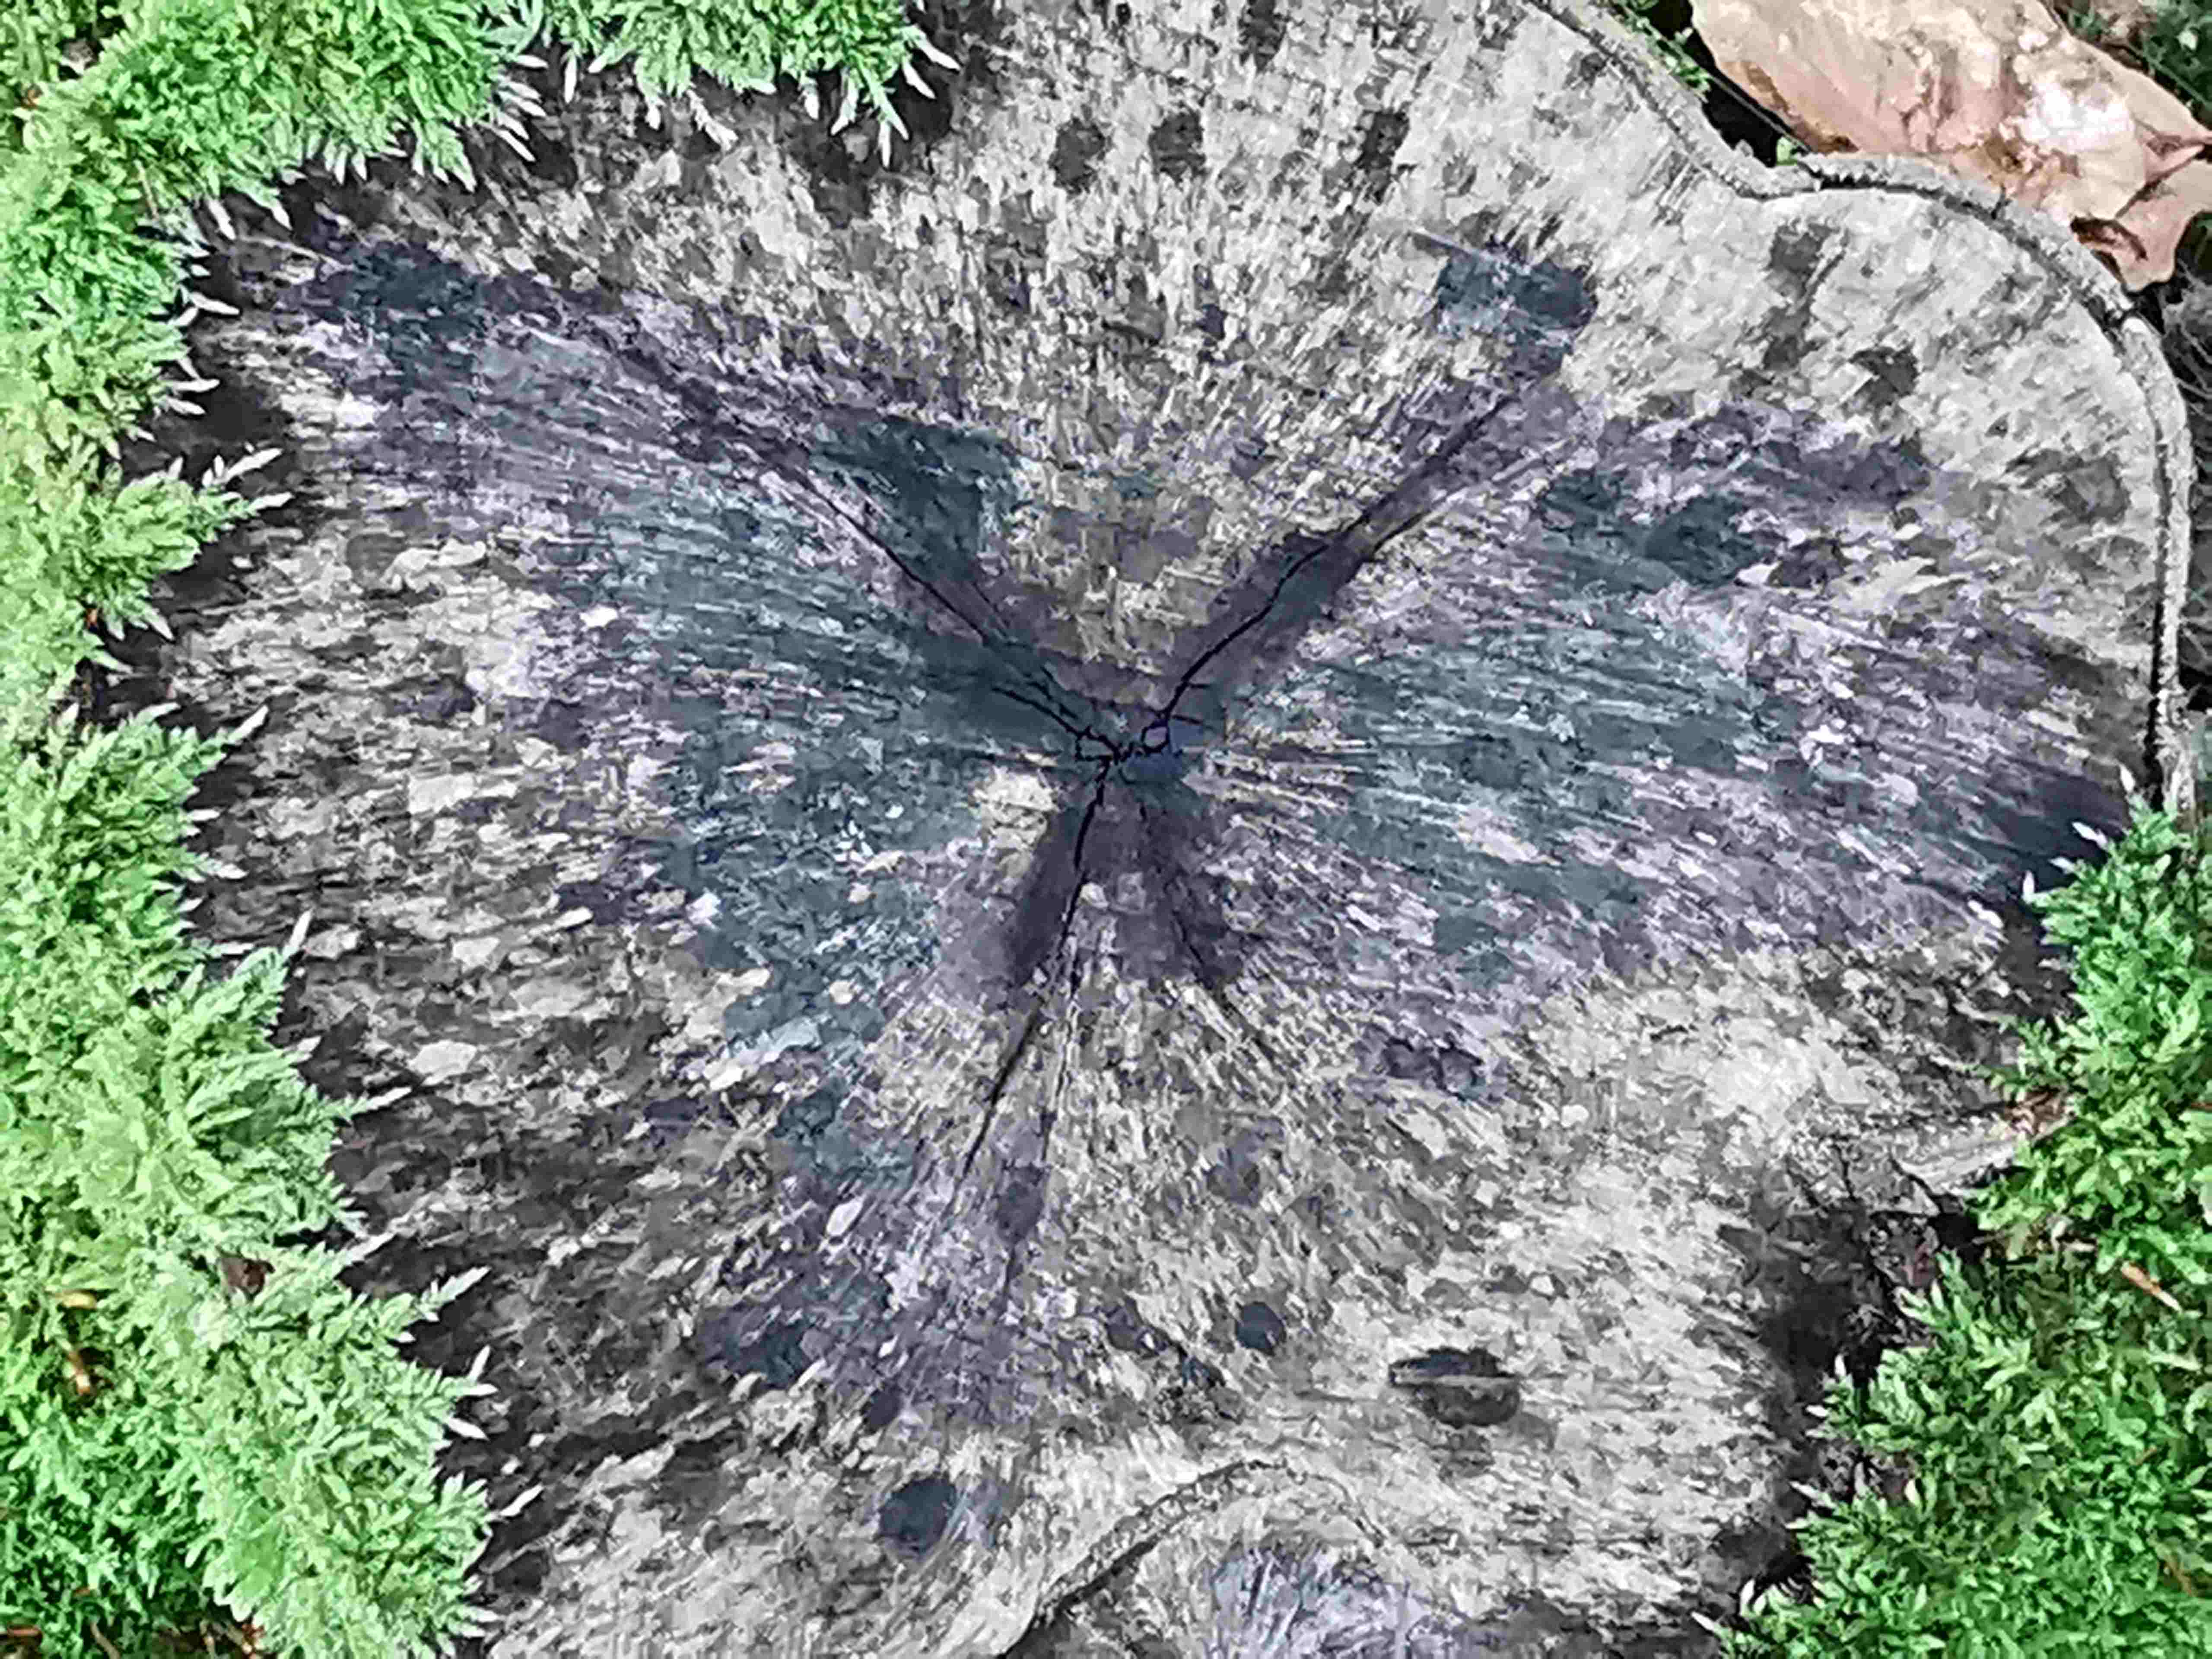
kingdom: Fungi
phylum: Ascomycota
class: Leotiomycetes
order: Helotiales
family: Helotiaceae
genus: Bispora
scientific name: Bispora pallescens
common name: måtte-snitskive
